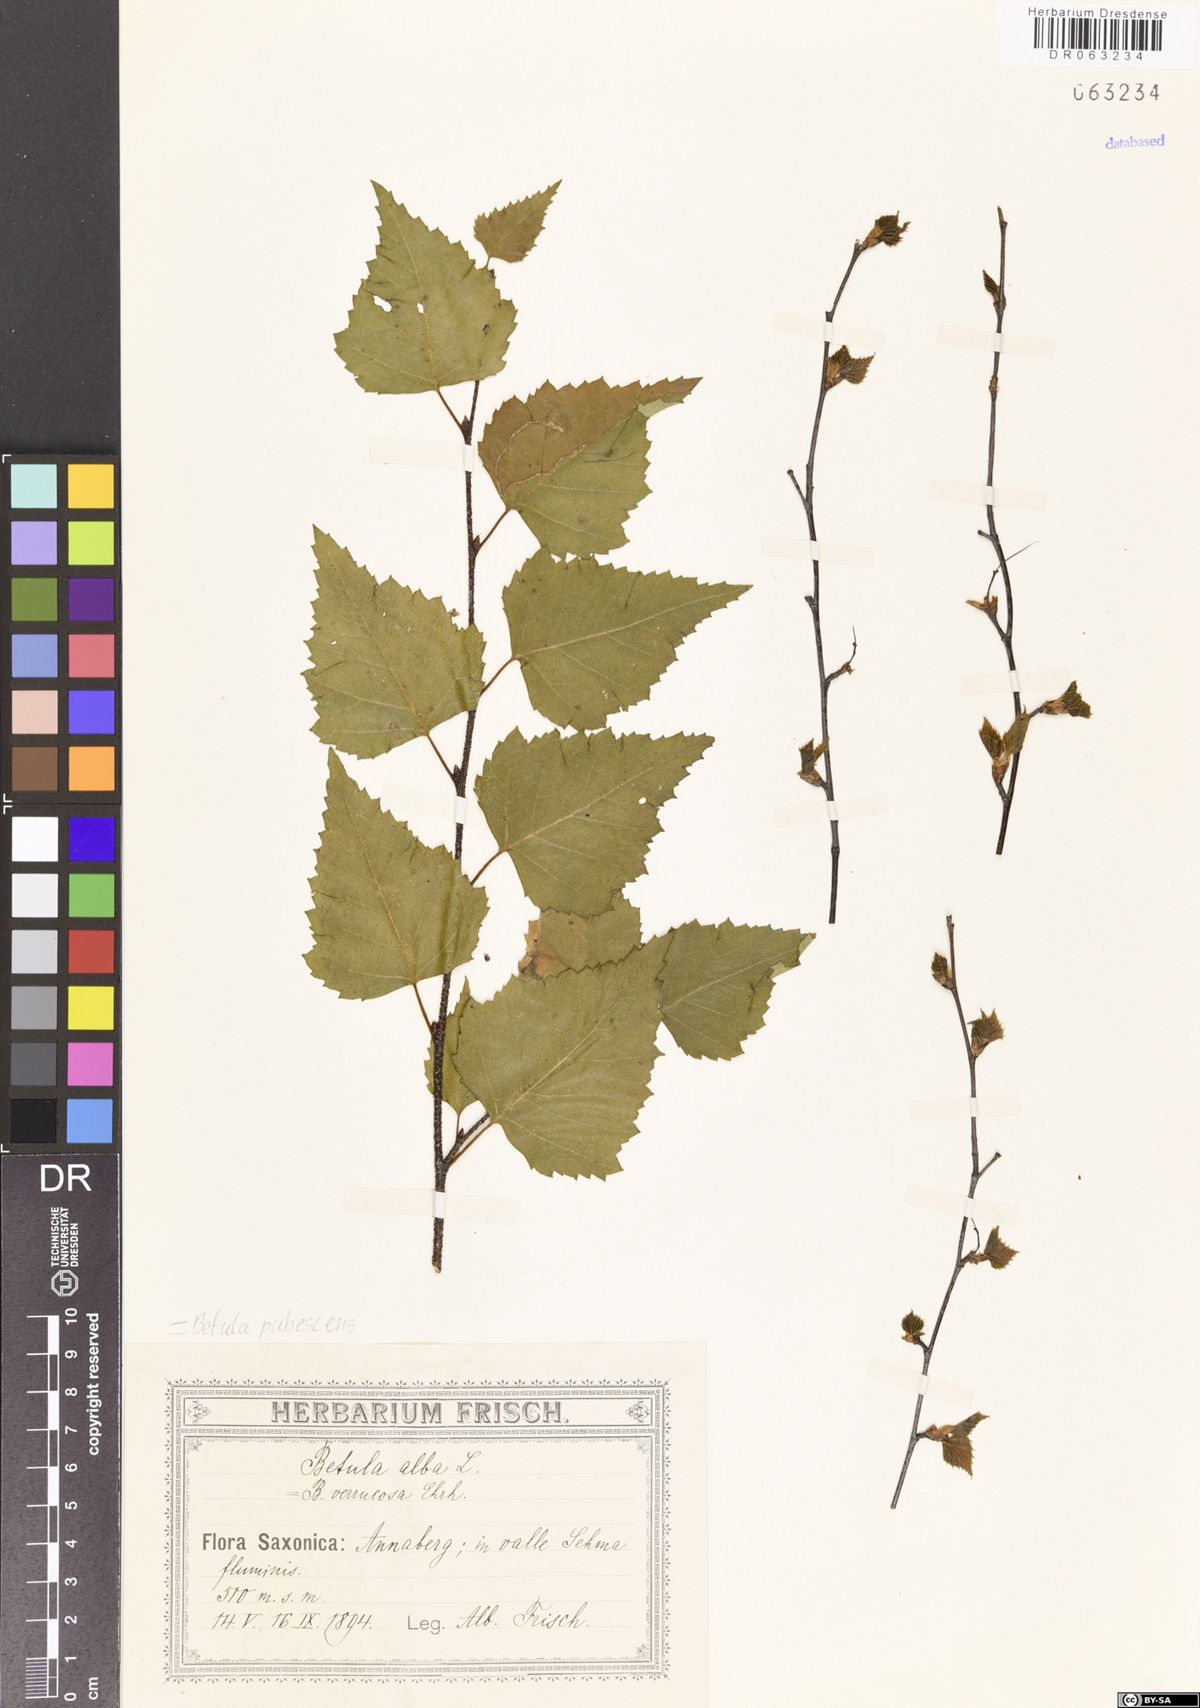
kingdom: Plantae
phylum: Tracheophyta
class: Magnoliopsida
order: Fagales
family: Betulaceae
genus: Betula
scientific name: Betula pubescens
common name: Downy birch
